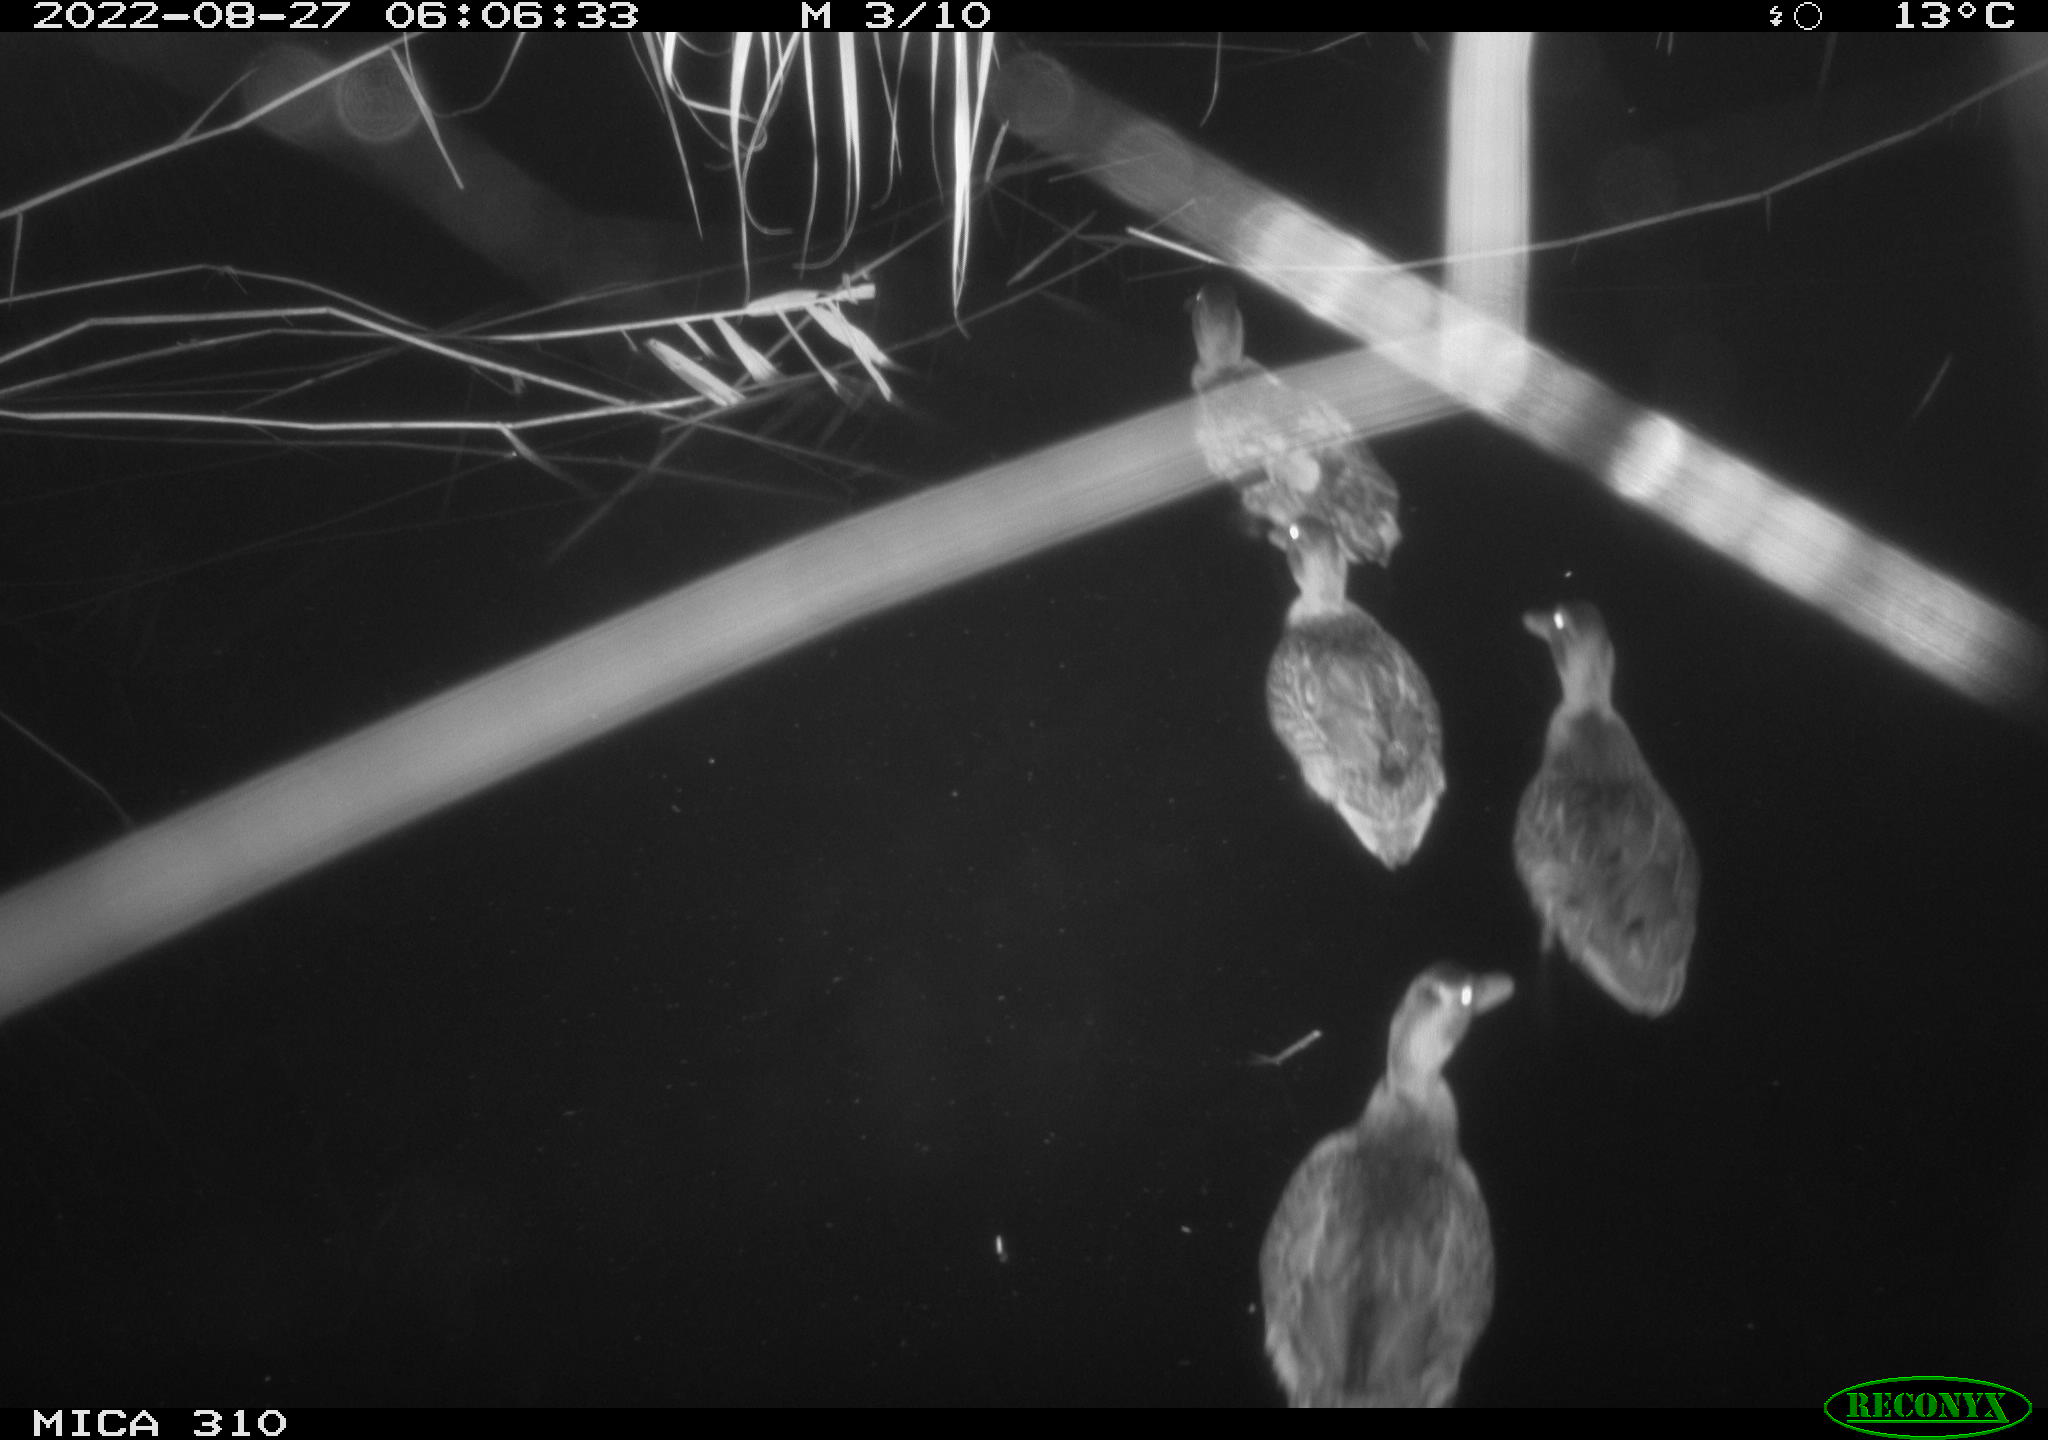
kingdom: Animalia
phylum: Chordata
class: Aves
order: Anseriformes
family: Anatidae
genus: Anas
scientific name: Anas platyrhynchos
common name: Mallard
